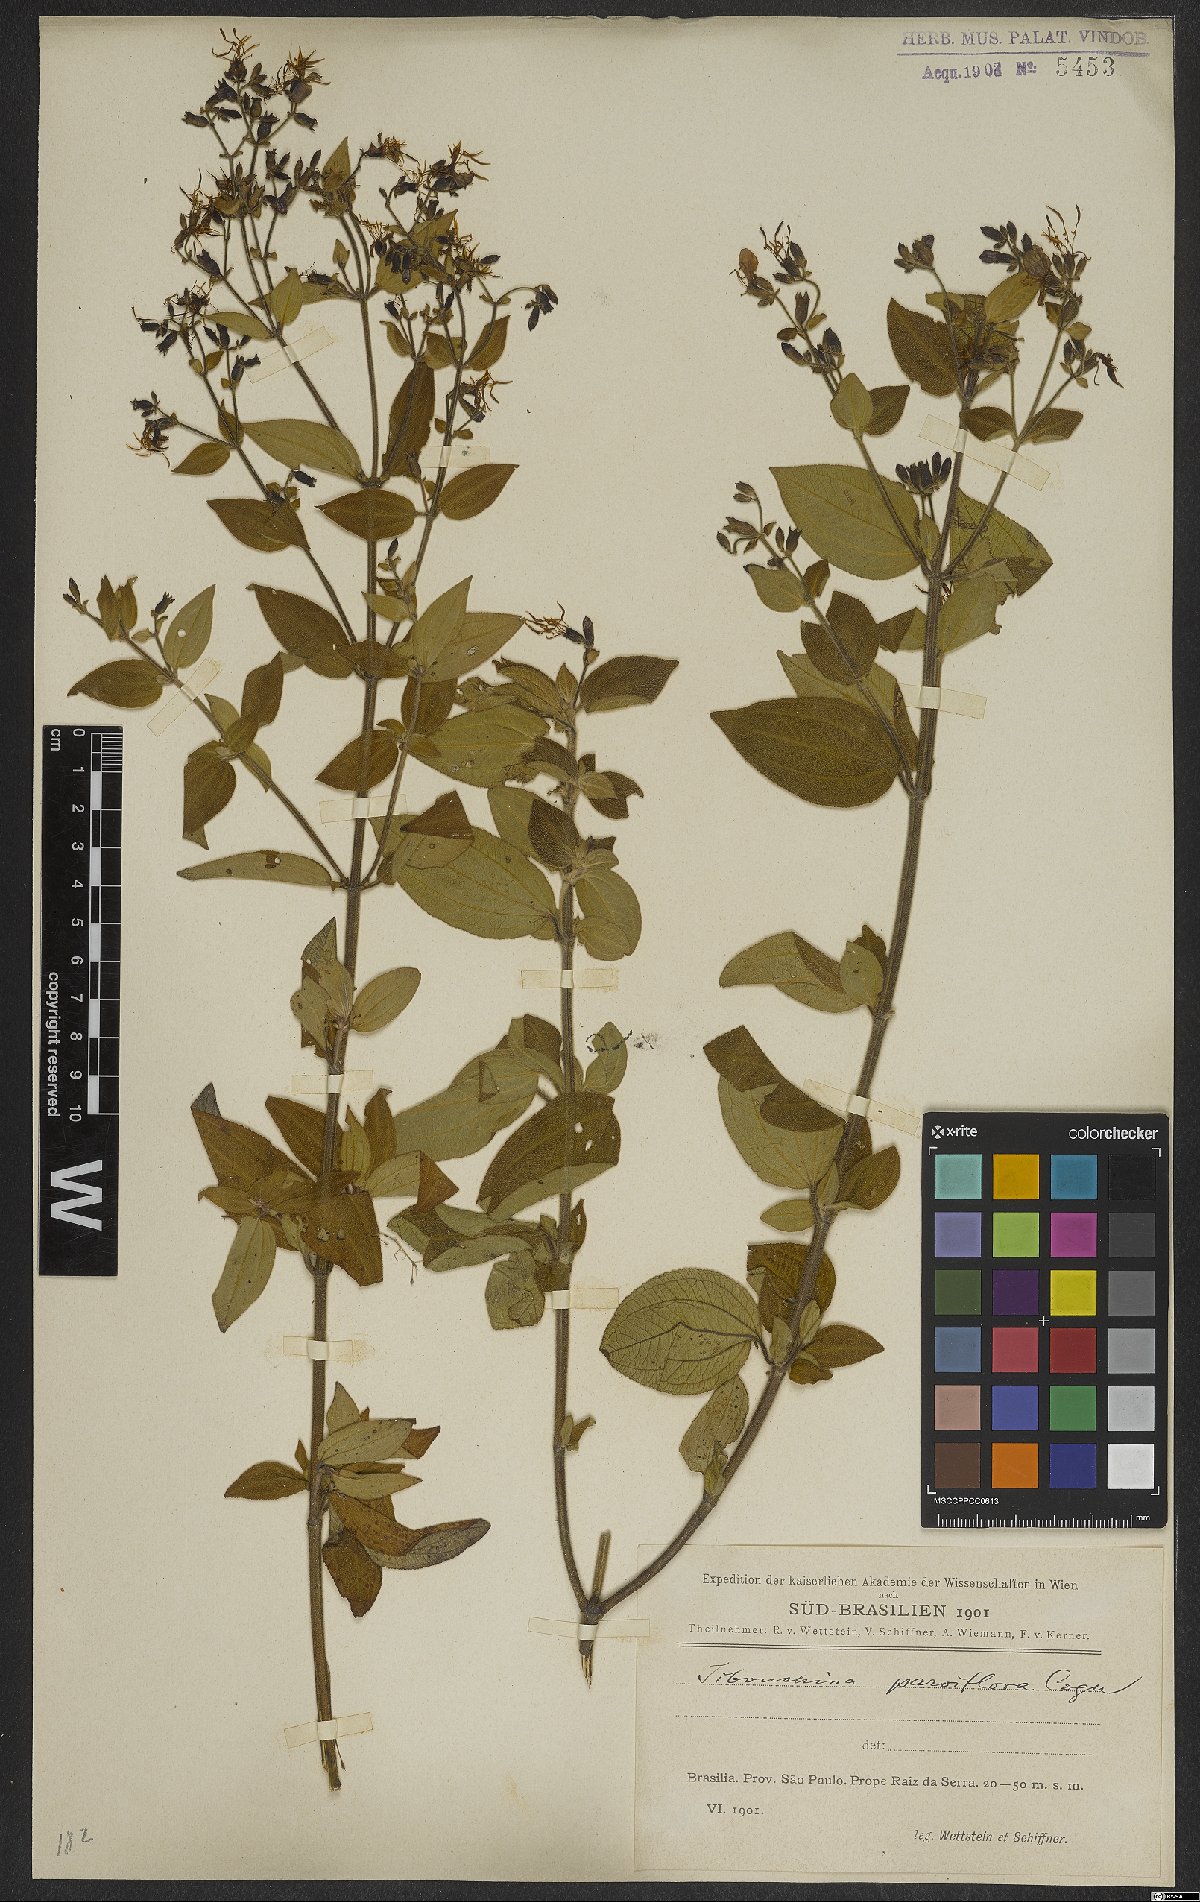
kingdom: Plantae
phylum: Tracheophyta
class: Magnoliopsida
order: Myrtales
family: Melastomataceae
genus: Chaetogastra
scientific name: Chaetogastra parviflora
